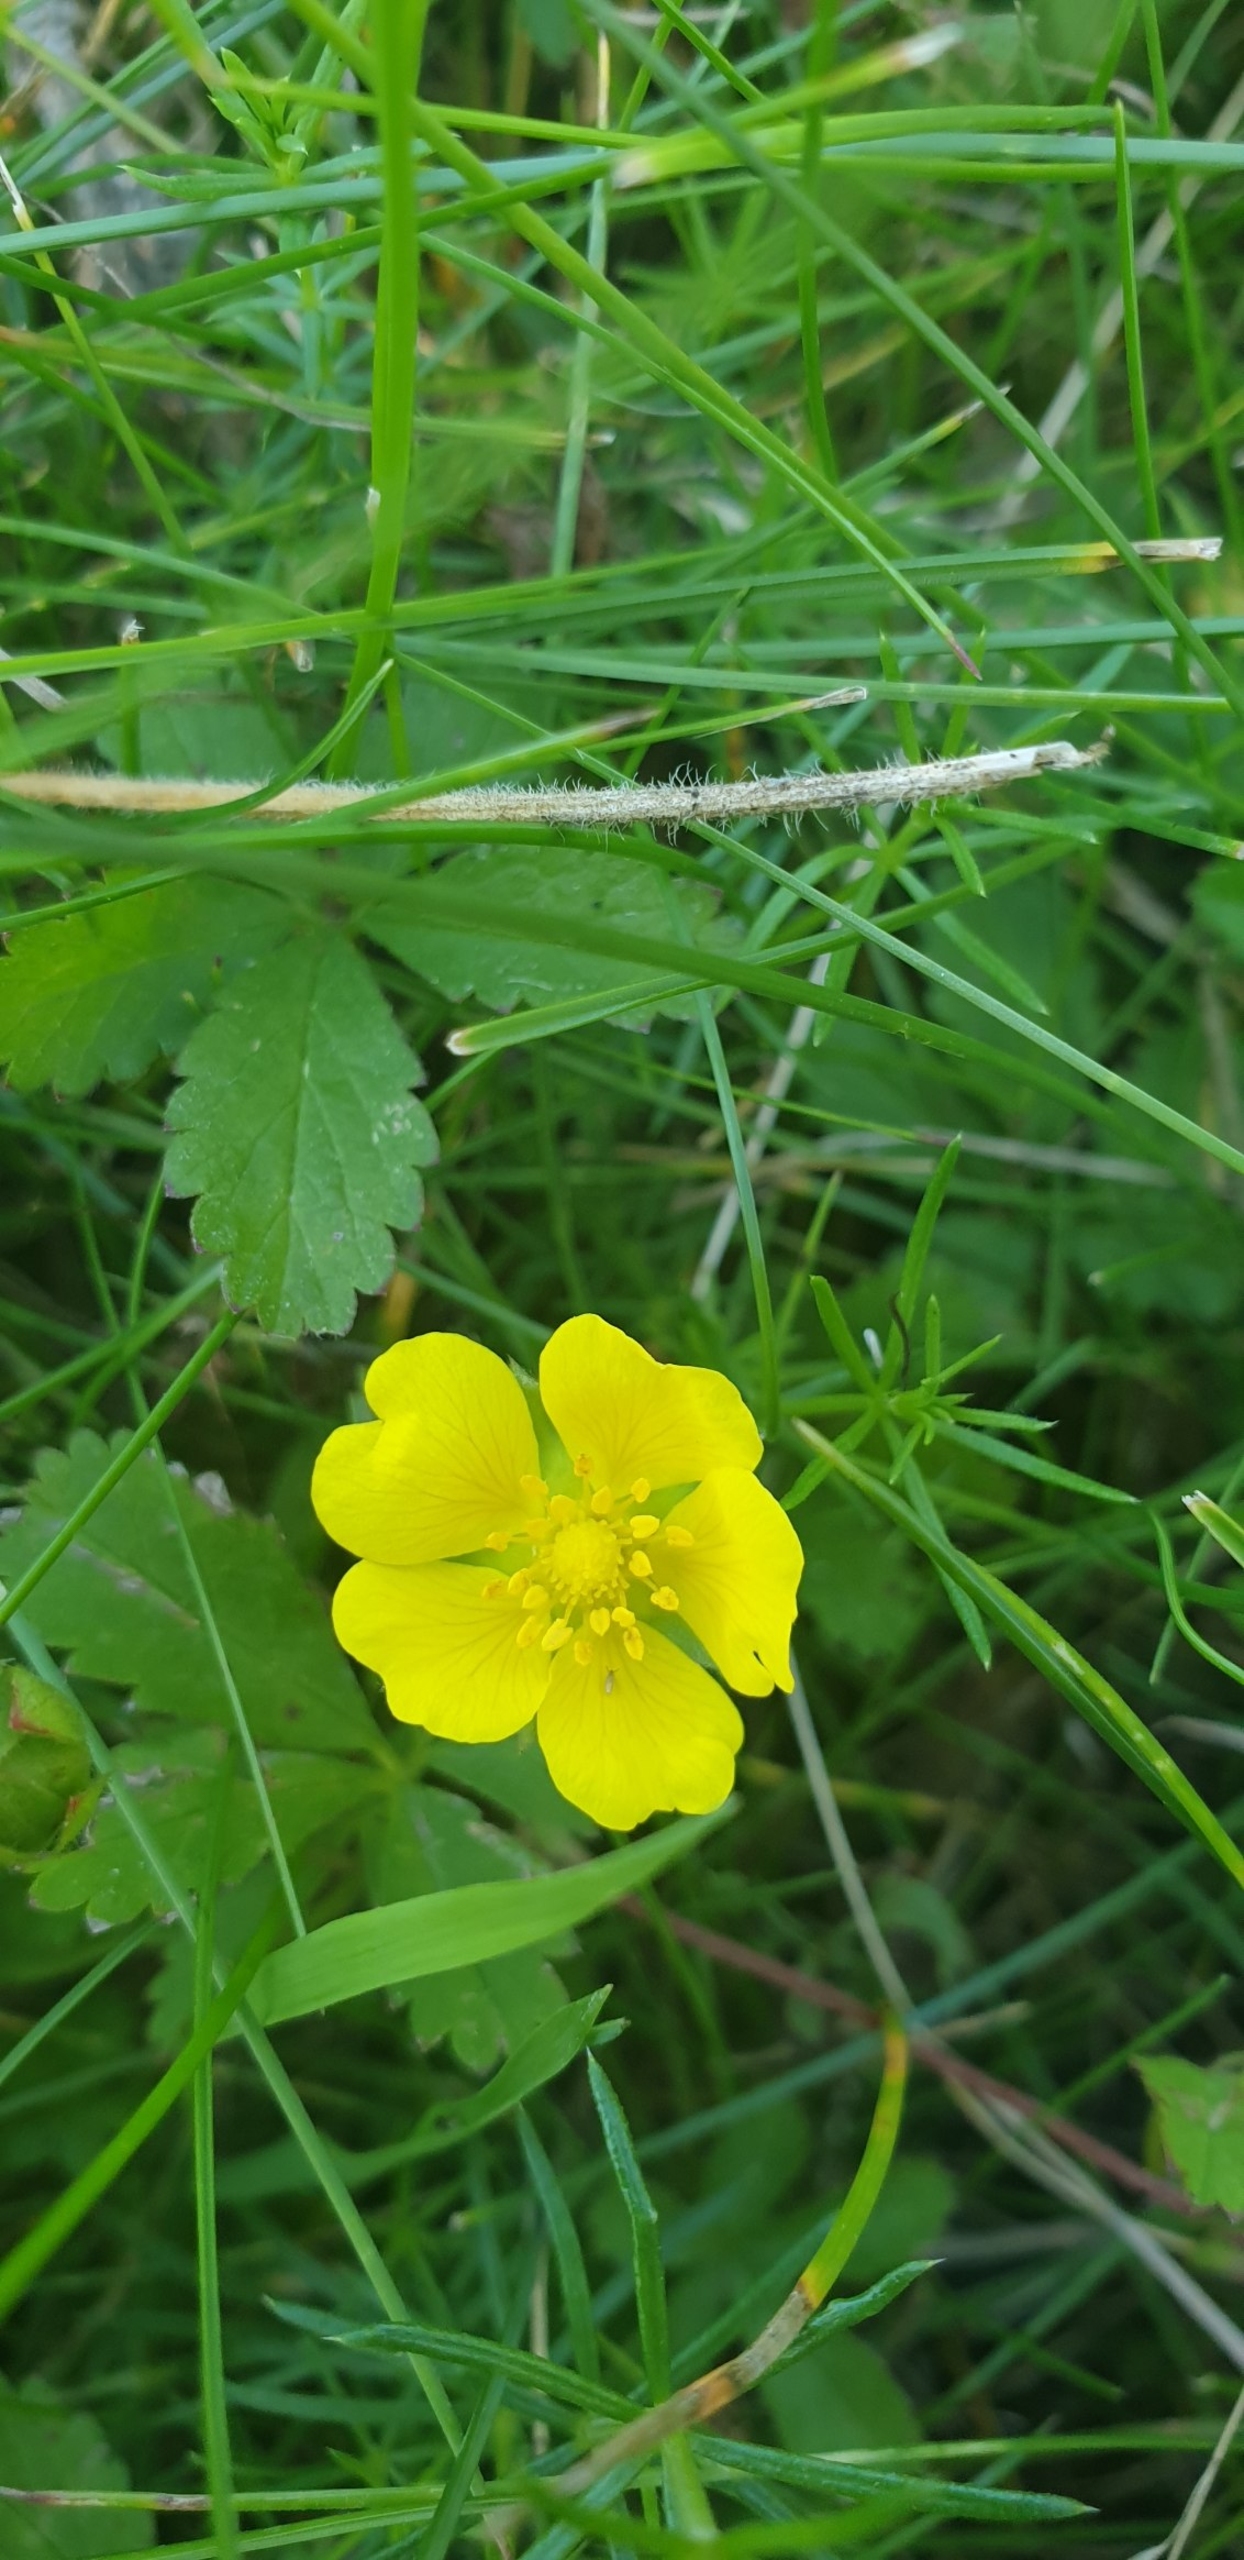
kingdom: Plantae
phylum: Tracheophyta
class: Magnoliopsida
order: Rosales
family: Rosaceae
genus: Potentilla
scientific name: Potentilla reptans
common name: Krybende potentil
